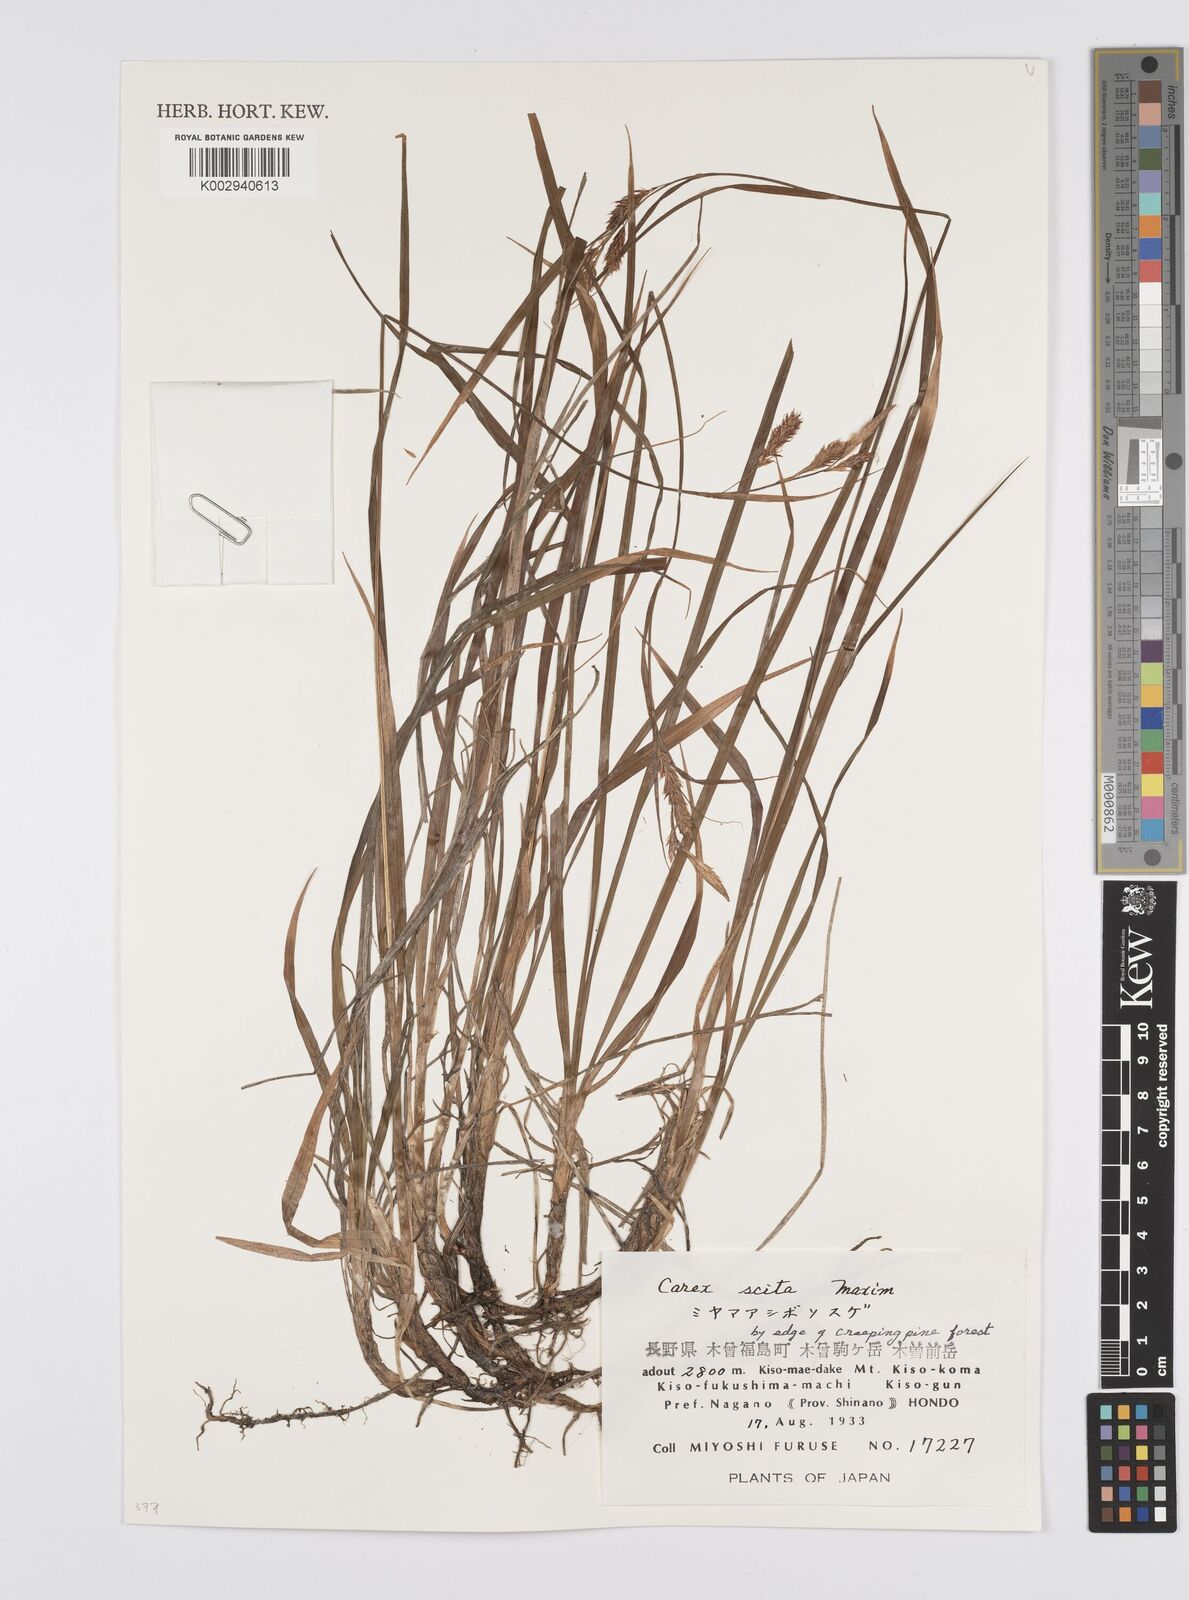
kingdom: Plantae
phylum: Tracheophyta
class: Liliopsida
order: Poales
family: Cyperaceae
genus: Carex
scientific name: Carex scita
